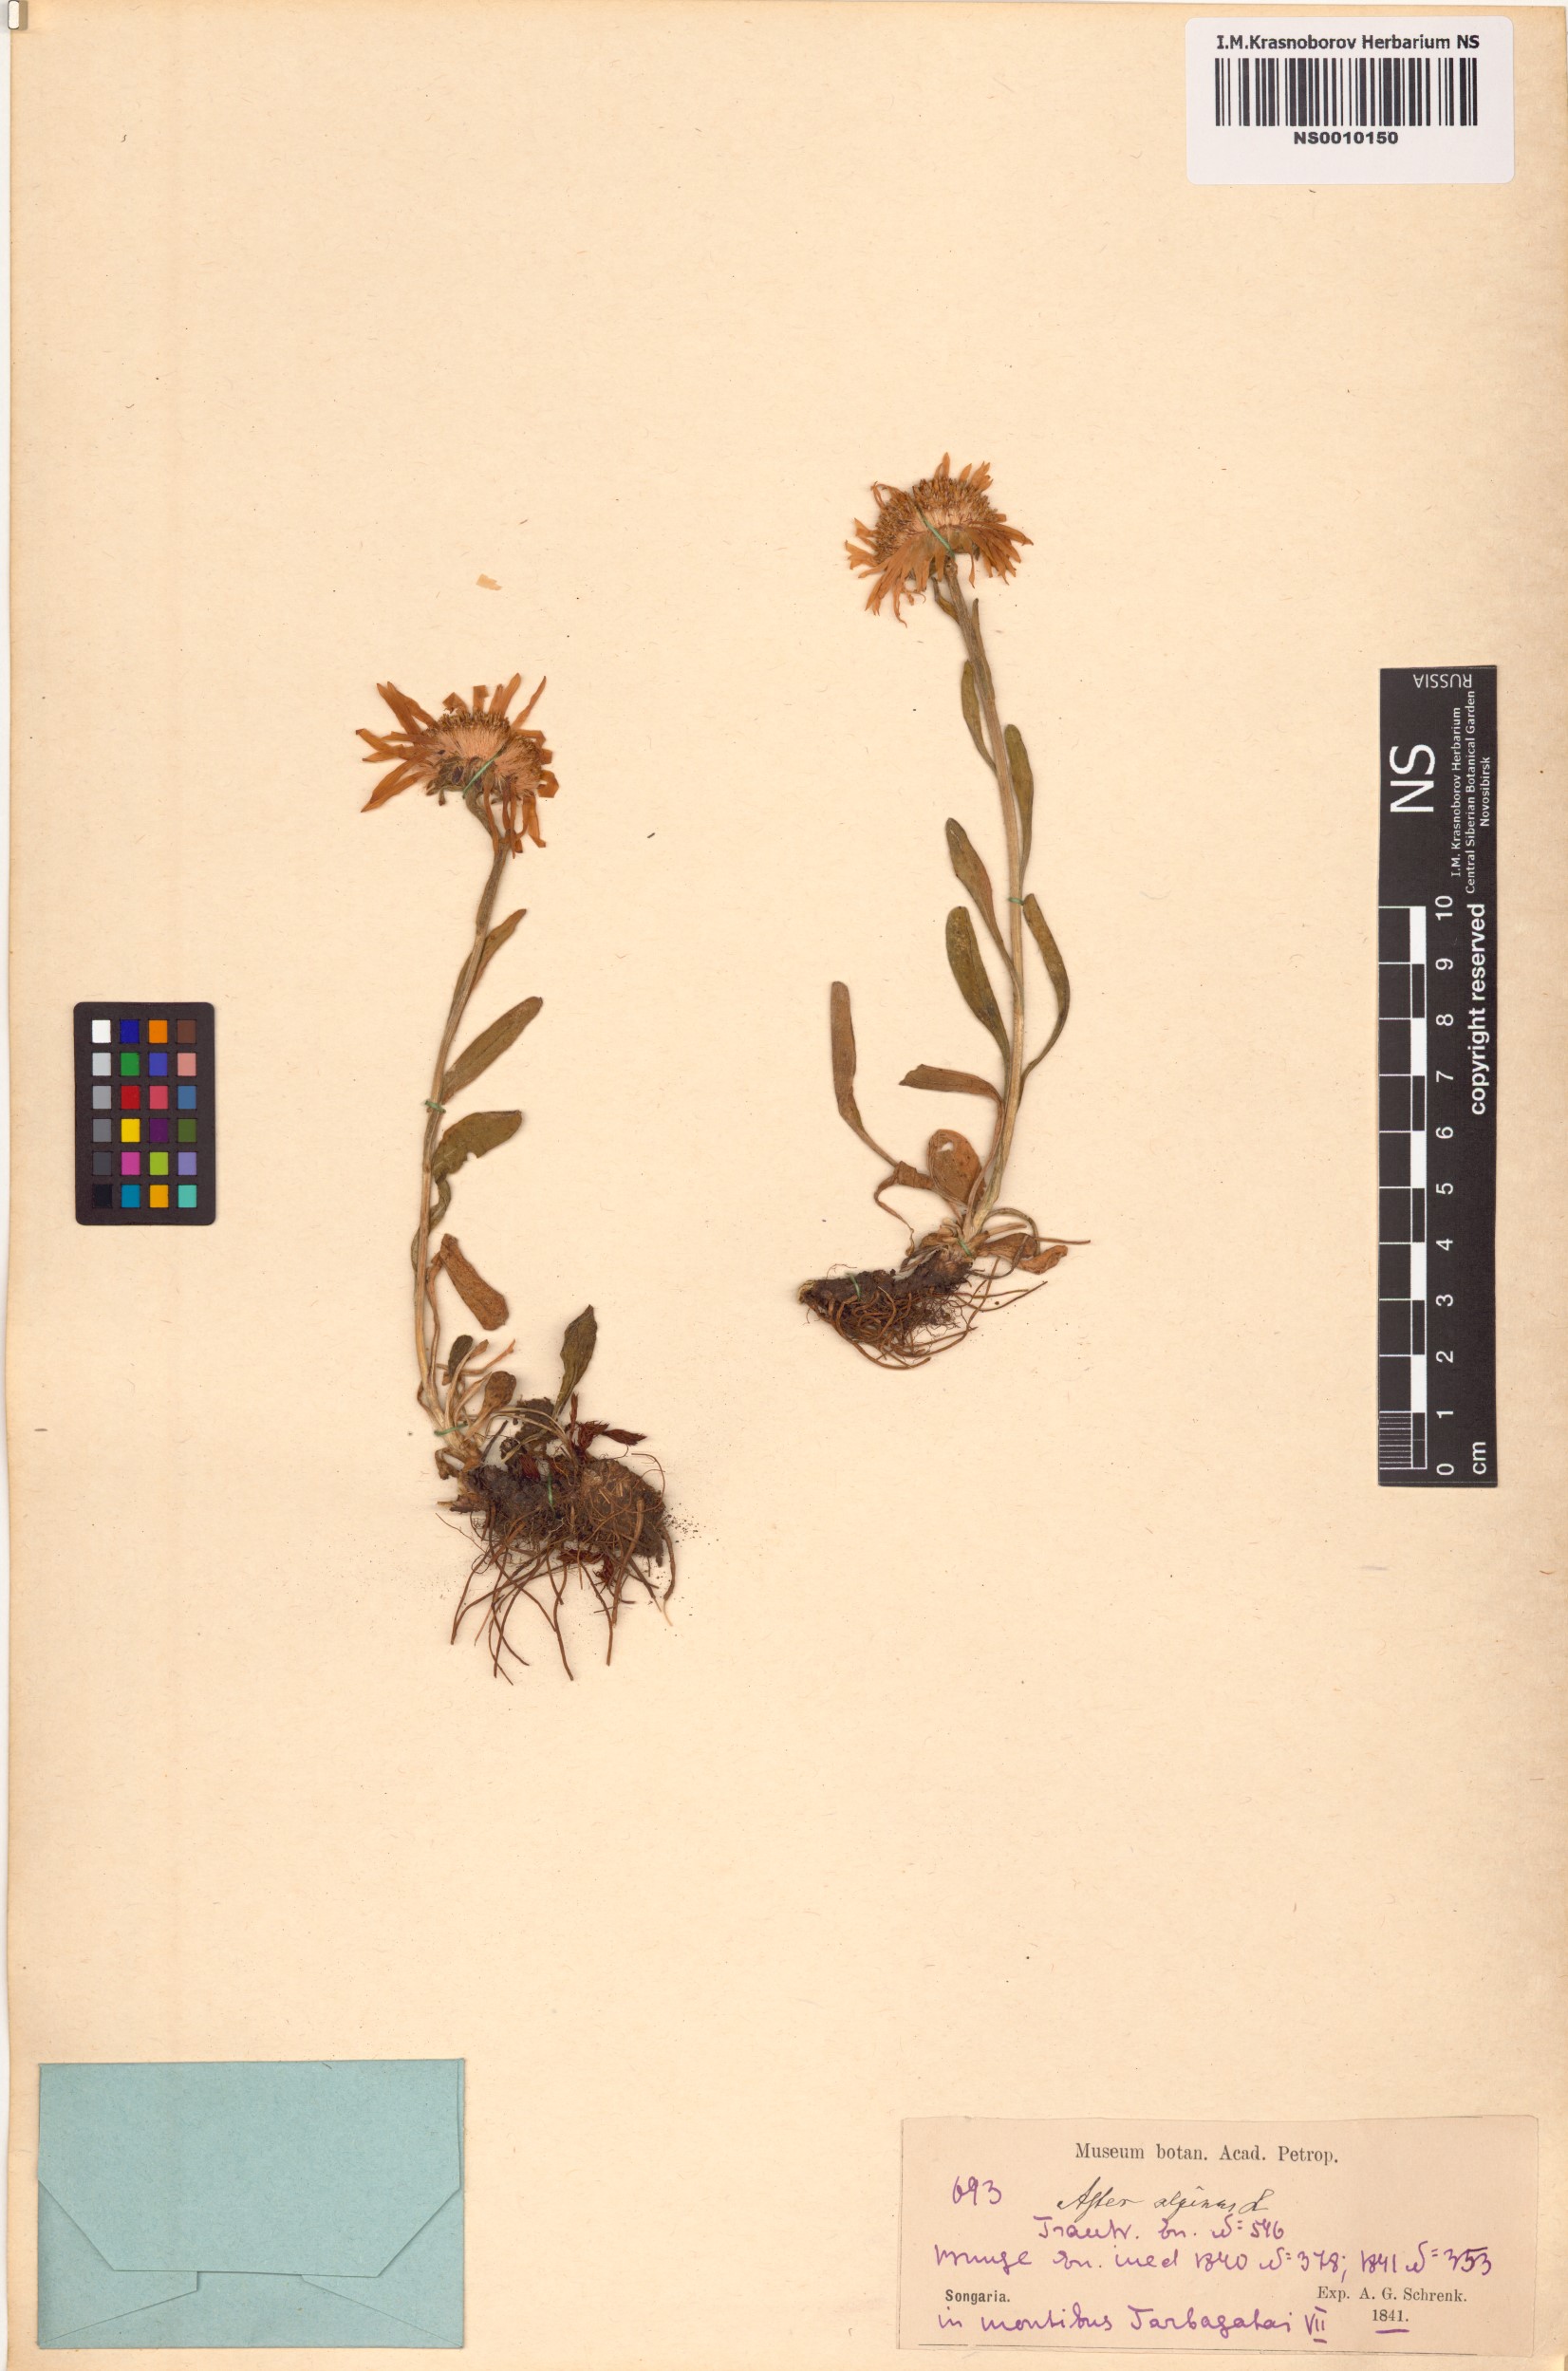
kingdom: Plantae
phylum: Tracheophyta
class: Magnoliopsida
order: Asterales
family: Asteraceae
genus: Aster
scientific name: Aster alpinus
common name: Alpine aster
